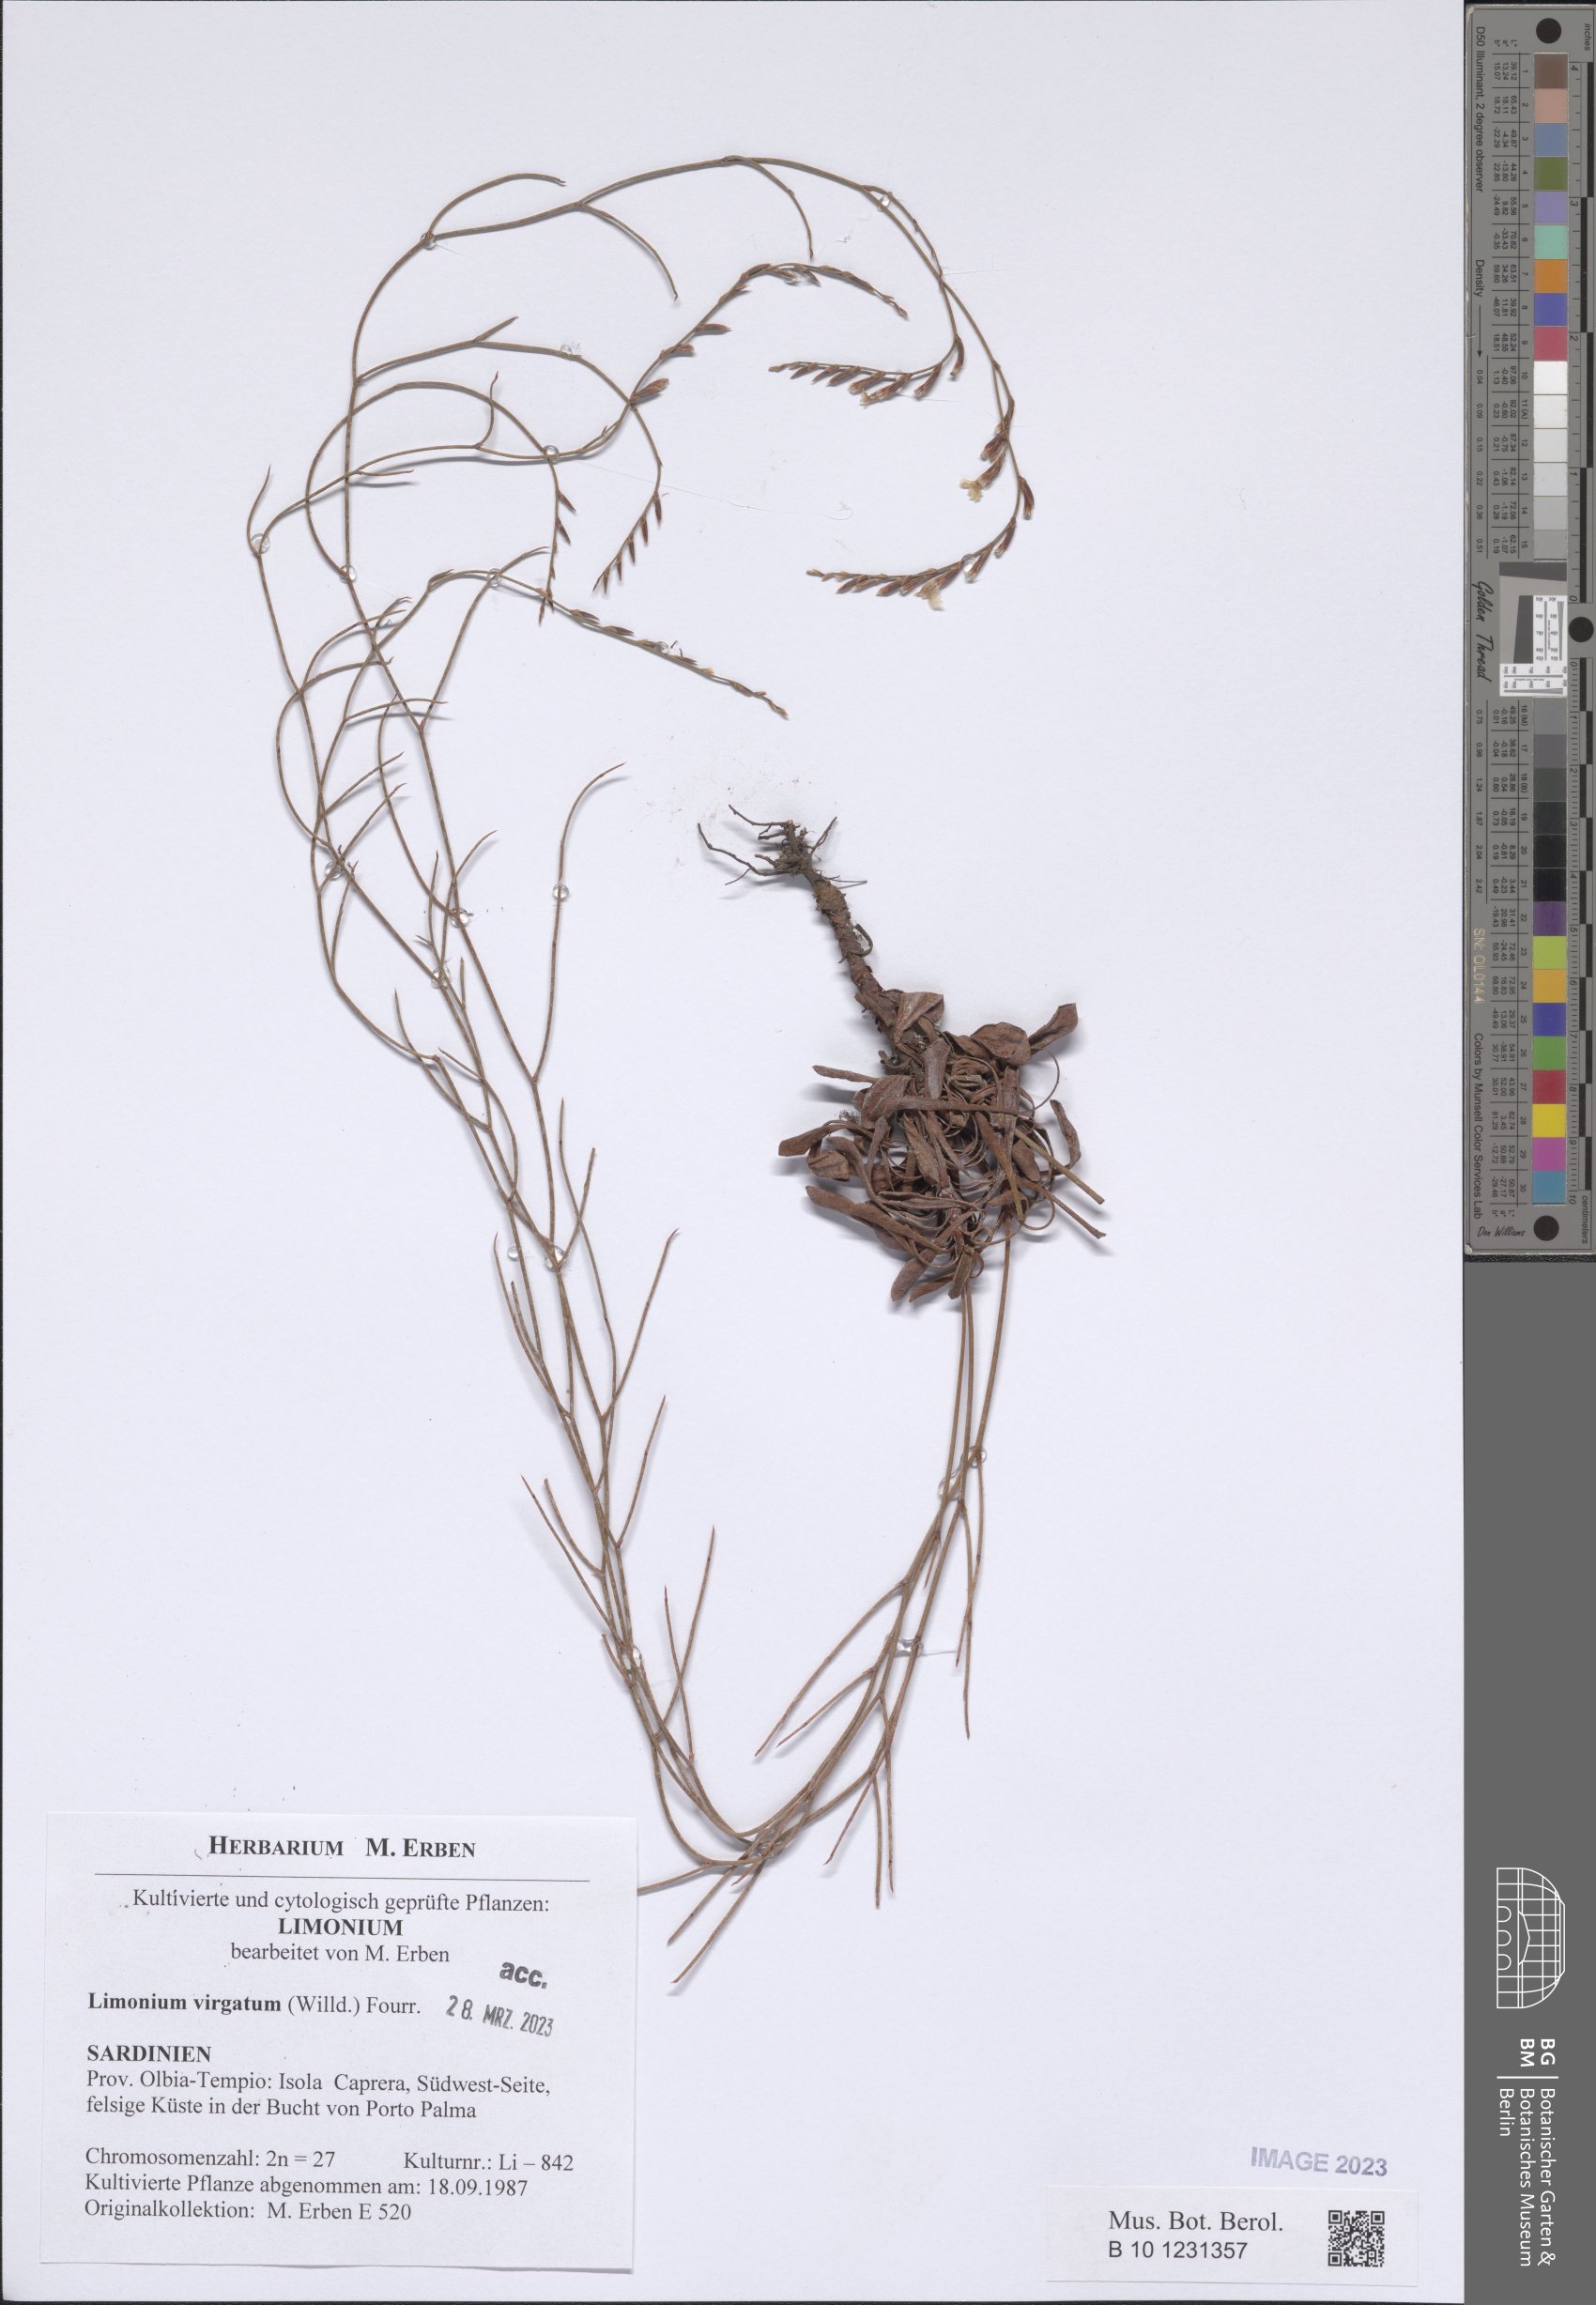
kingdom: Plantae
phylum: Tracheophyta
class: Magnoliopsida
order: Caryophyllales
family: Plumbaginaceae
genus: Limonium
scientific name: Limonium virgatum
